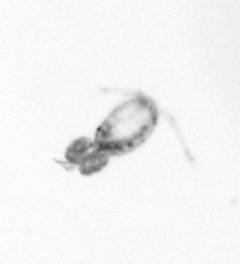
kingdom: Animalia
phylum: Arthropoda
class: Copepoda
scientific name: Copepoda
